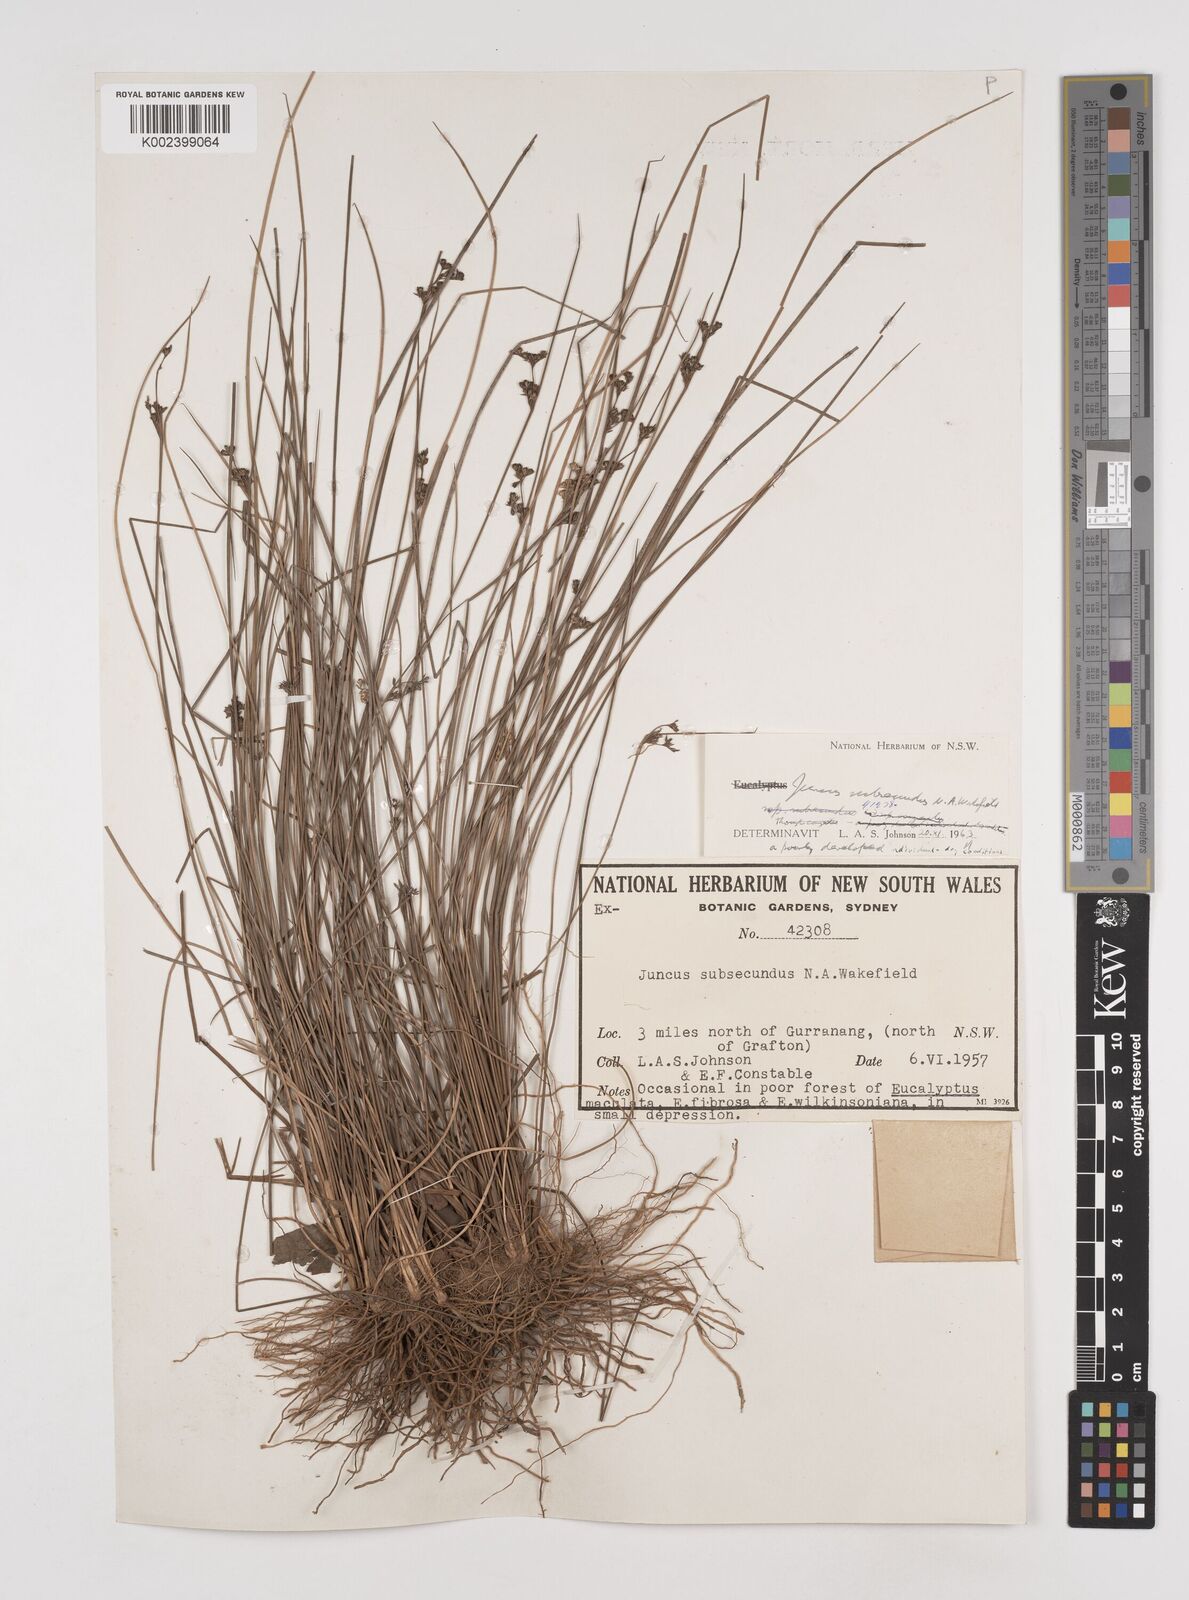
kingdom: Plantae
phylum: Tracheophyta
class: Liliopsida
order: Poales
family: Juncaceae
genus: Juncus
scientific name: Juncus subsecundus
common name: Fingered rush
